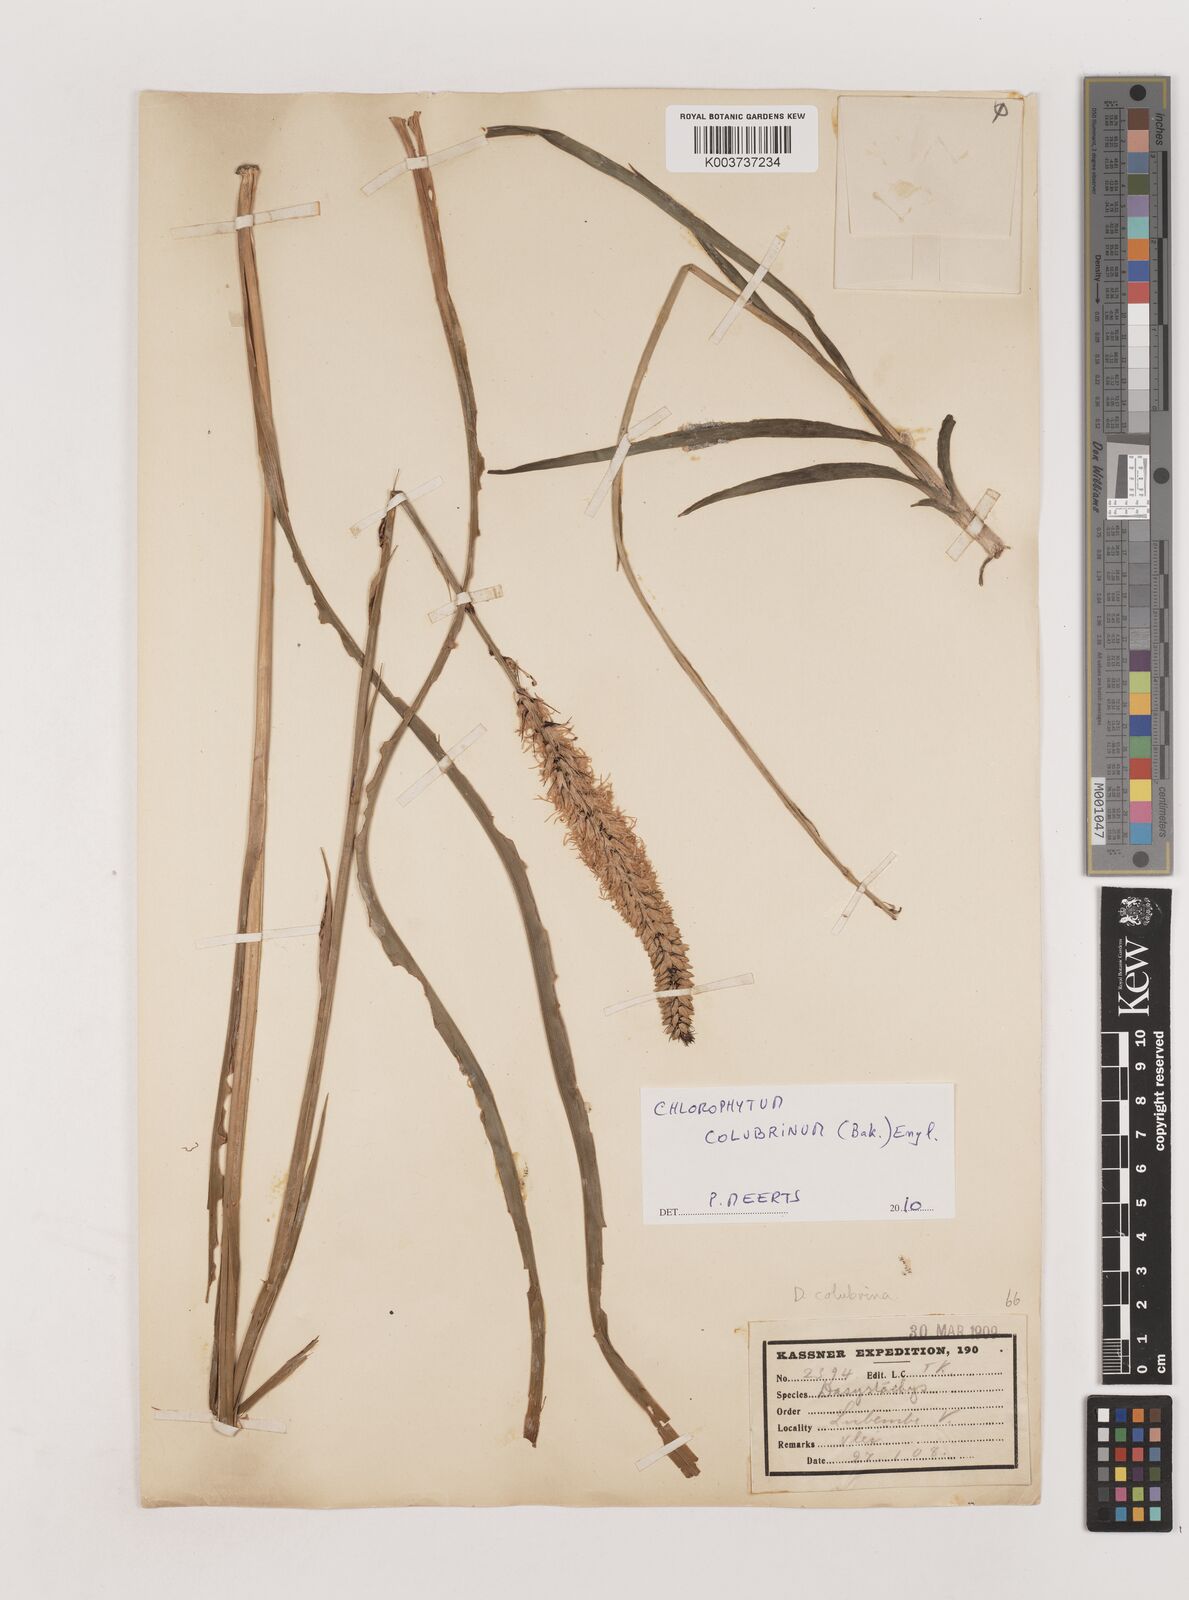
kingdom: Plantae
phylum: Tracheophyta
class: Liliopsida
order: Asparagales
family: Asparagaceae
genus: Chlorophytum
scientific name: Chlorophytum colubrinum
